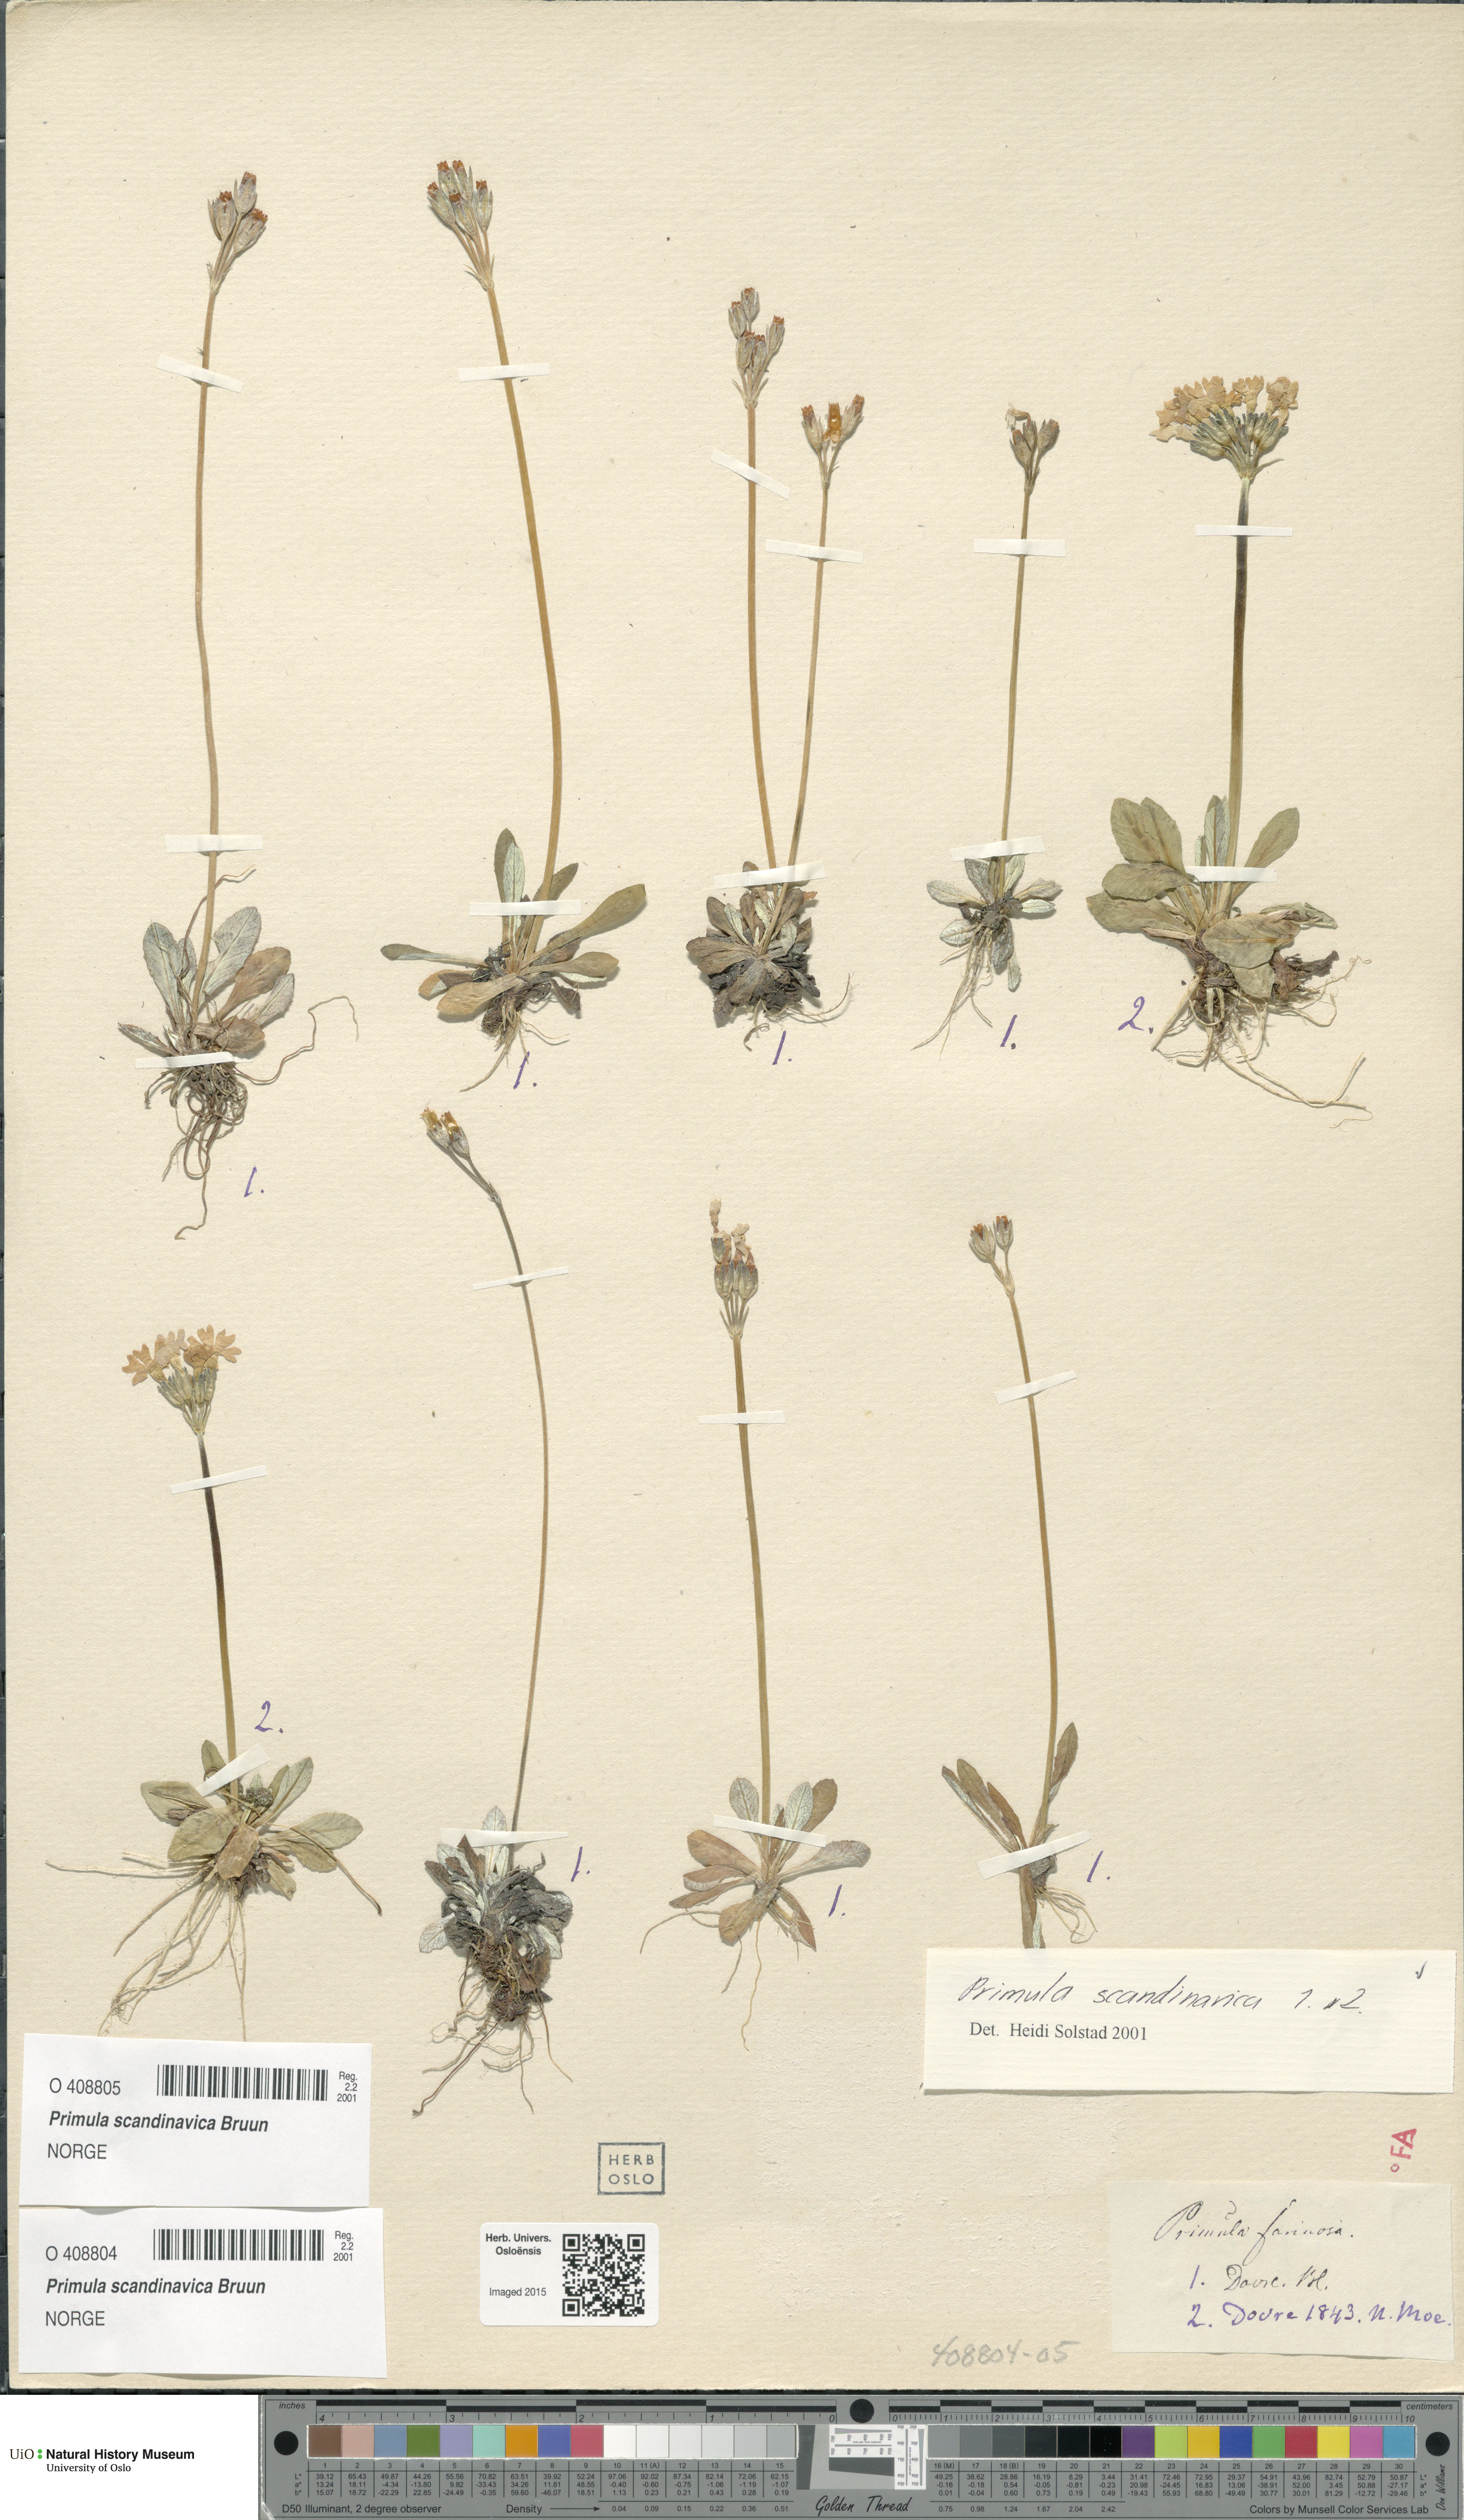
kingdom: Plantae
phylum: Tracheophyta
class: Magnoliopsida
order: Ericales
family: Primulaceae
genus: Primula
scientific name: Primula scandinavica
